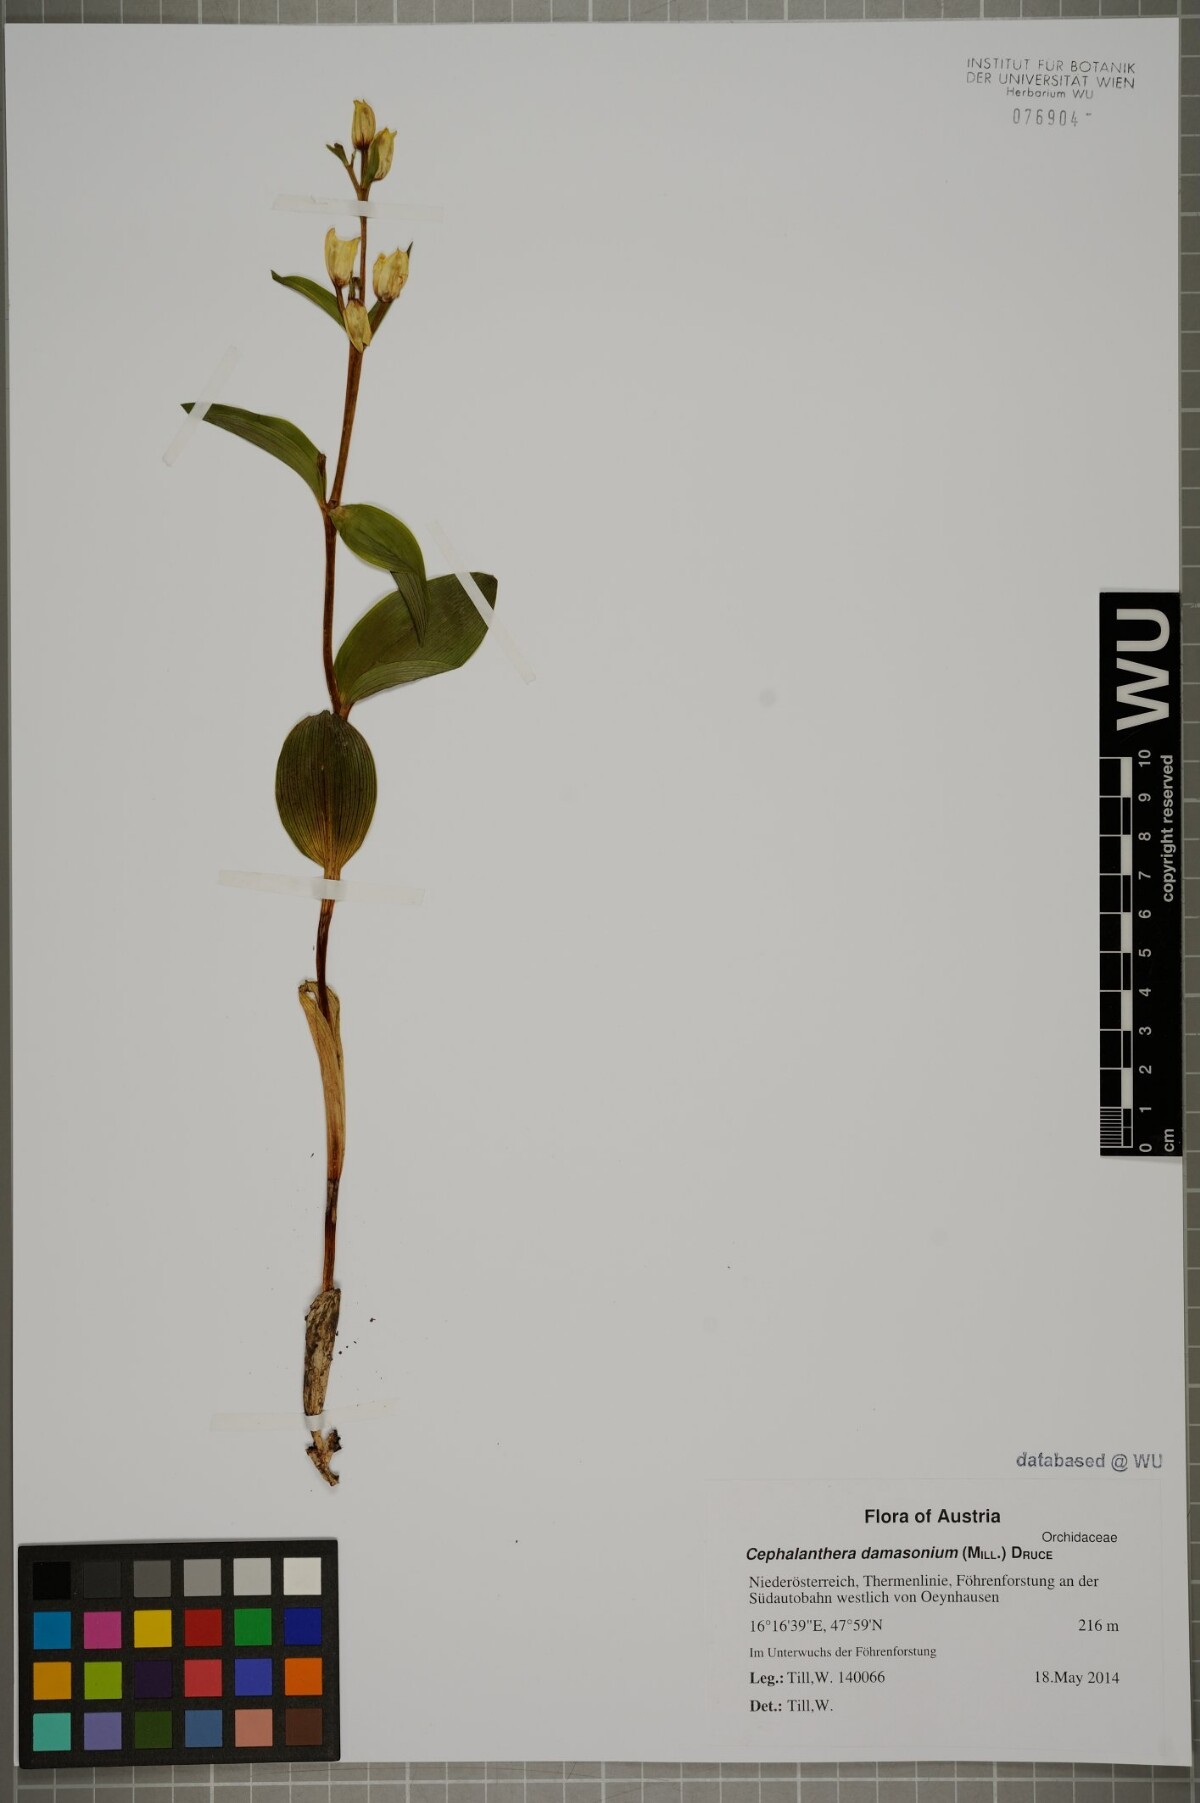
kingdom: Plantae
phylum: Tracheophyta
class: Liliopsida
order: Asparagales
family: Orchidaceae
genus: Cephalanthera
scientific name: Cephalanthera damasonium
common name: White helleborine
